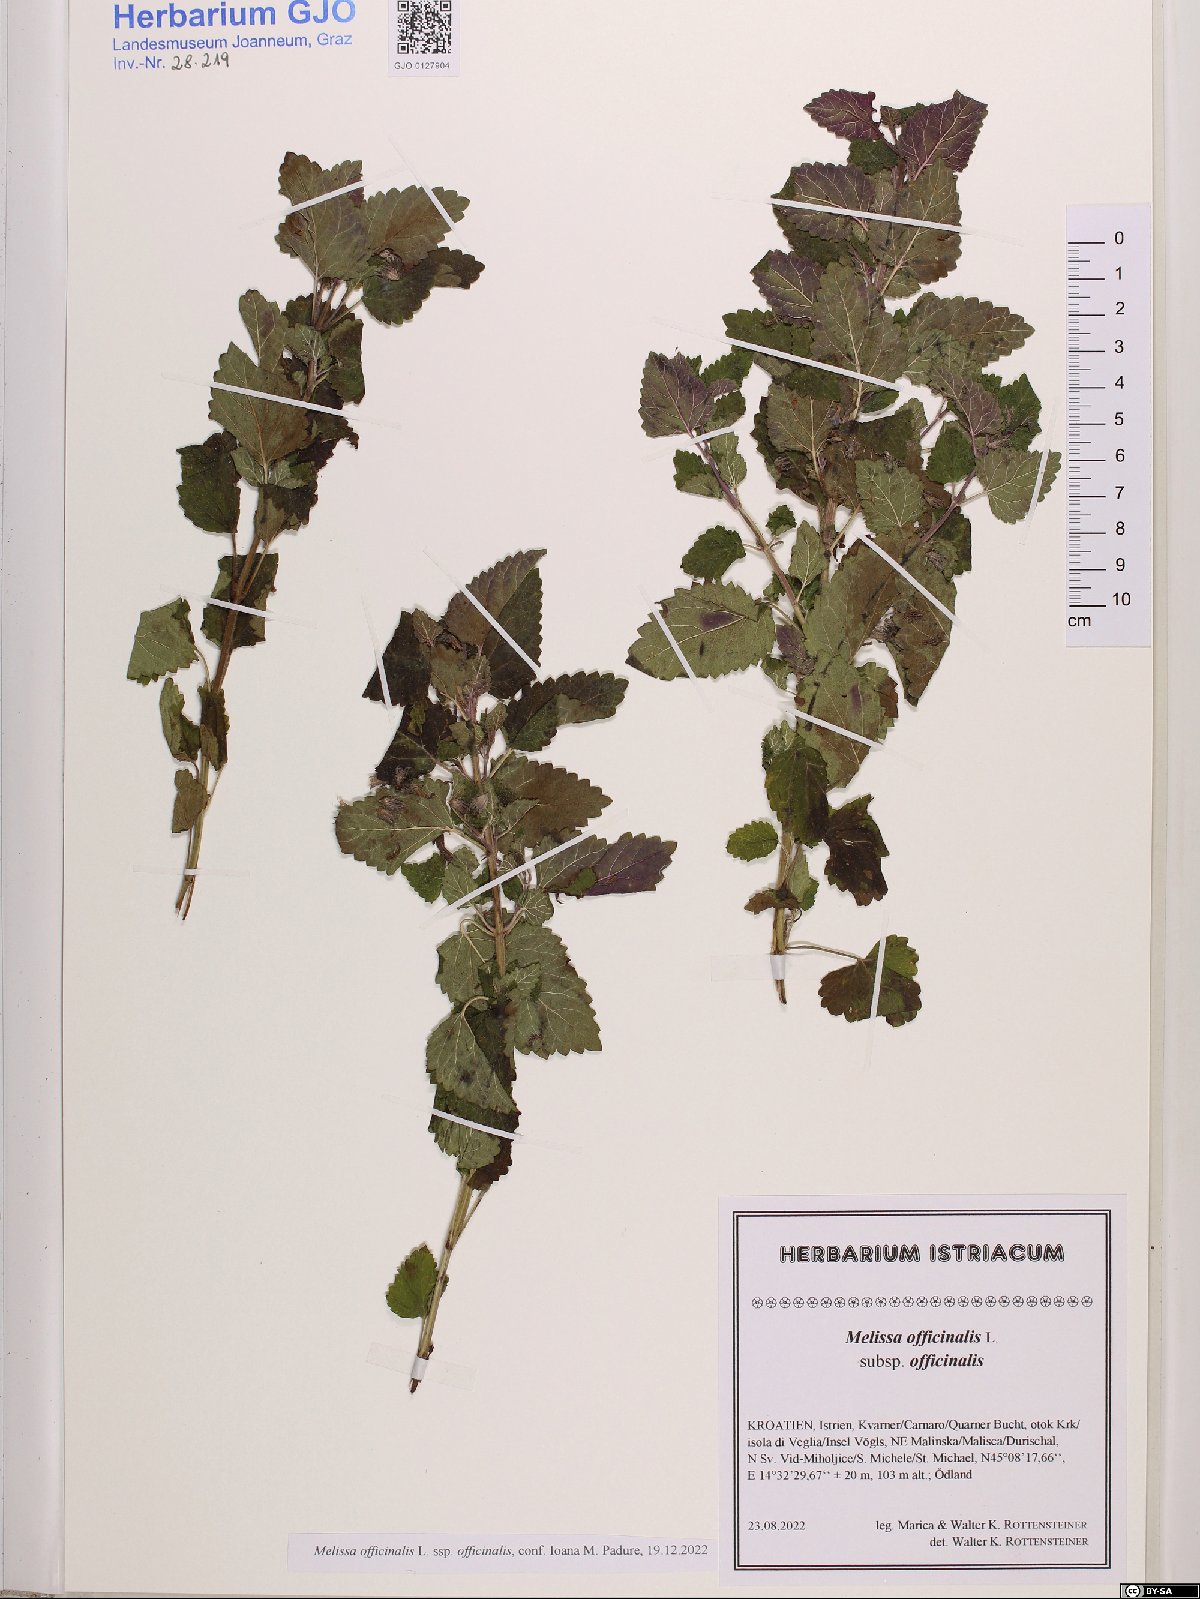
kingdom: Plantae
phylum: Tracheophyta
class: Magnoliopsida
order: Lamiales
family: Lamiaceae
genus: Melissa
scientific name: Melissa officinalis
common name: Balm
